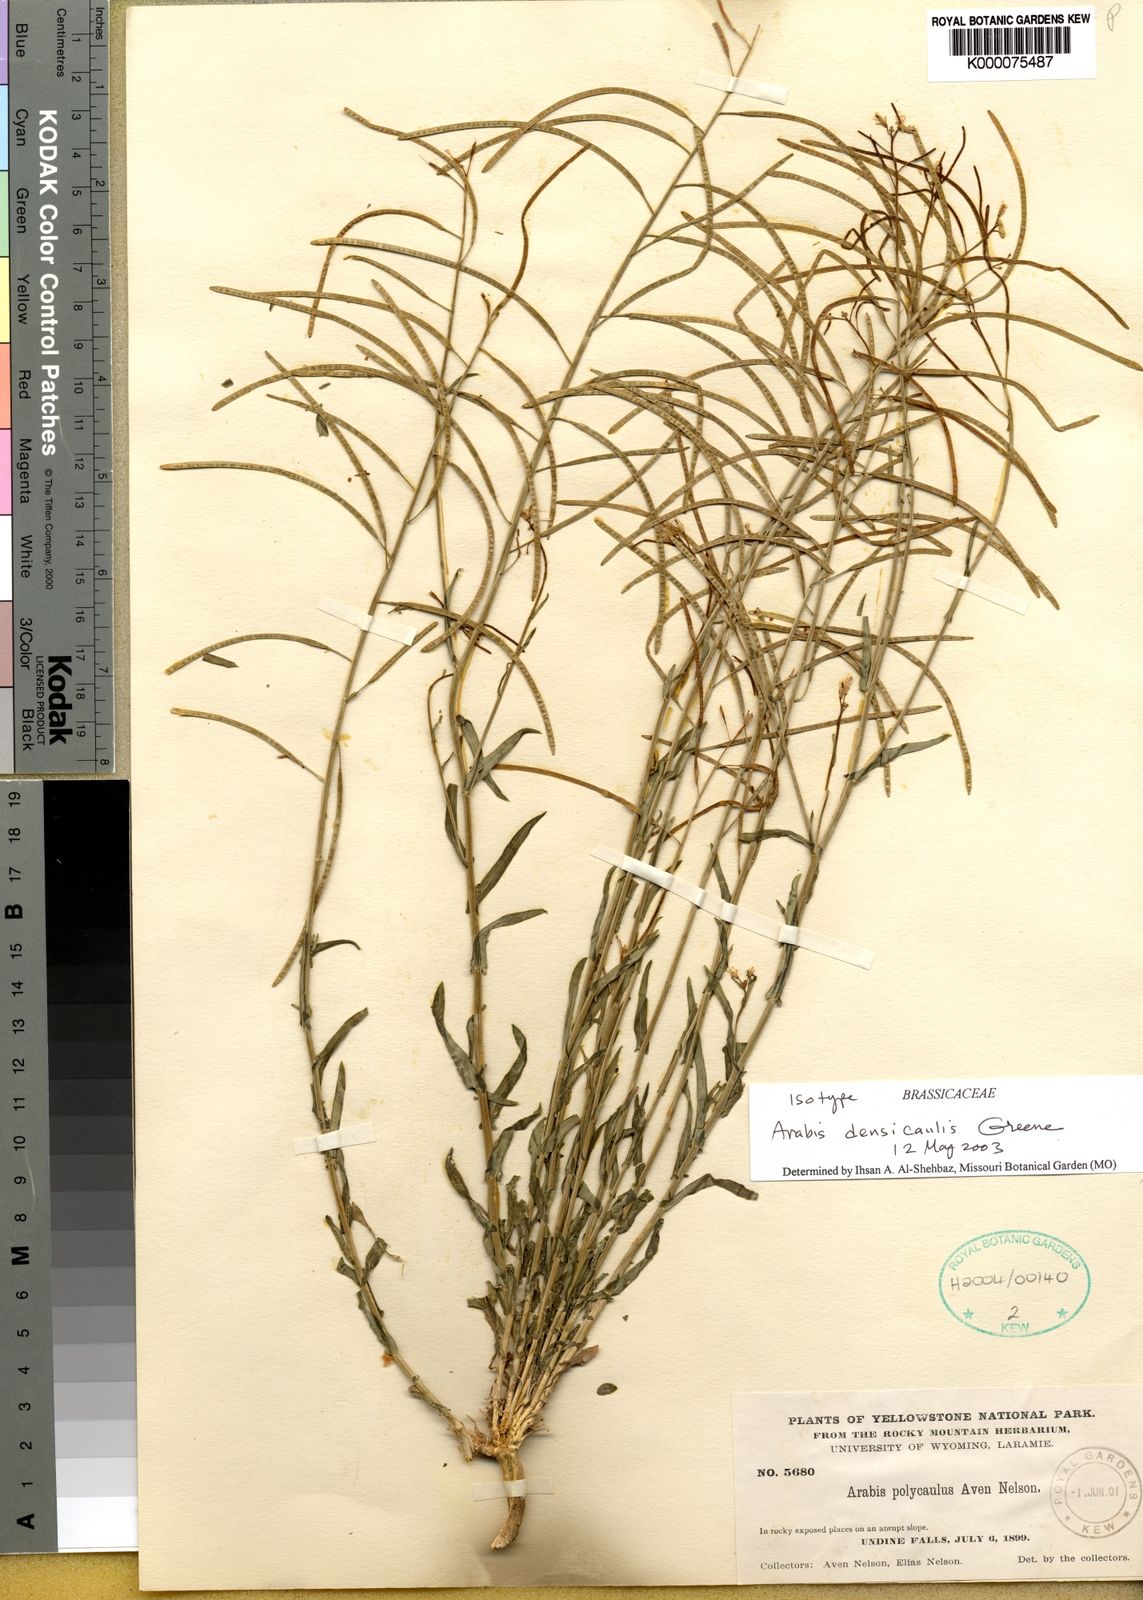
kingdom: Plantae
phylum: Tracheophyta
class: Magnoliopsida
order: Brassicales
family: Brassicaceae
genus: Boechera
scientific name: Boechera macounii
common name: Macoun's rockcress
